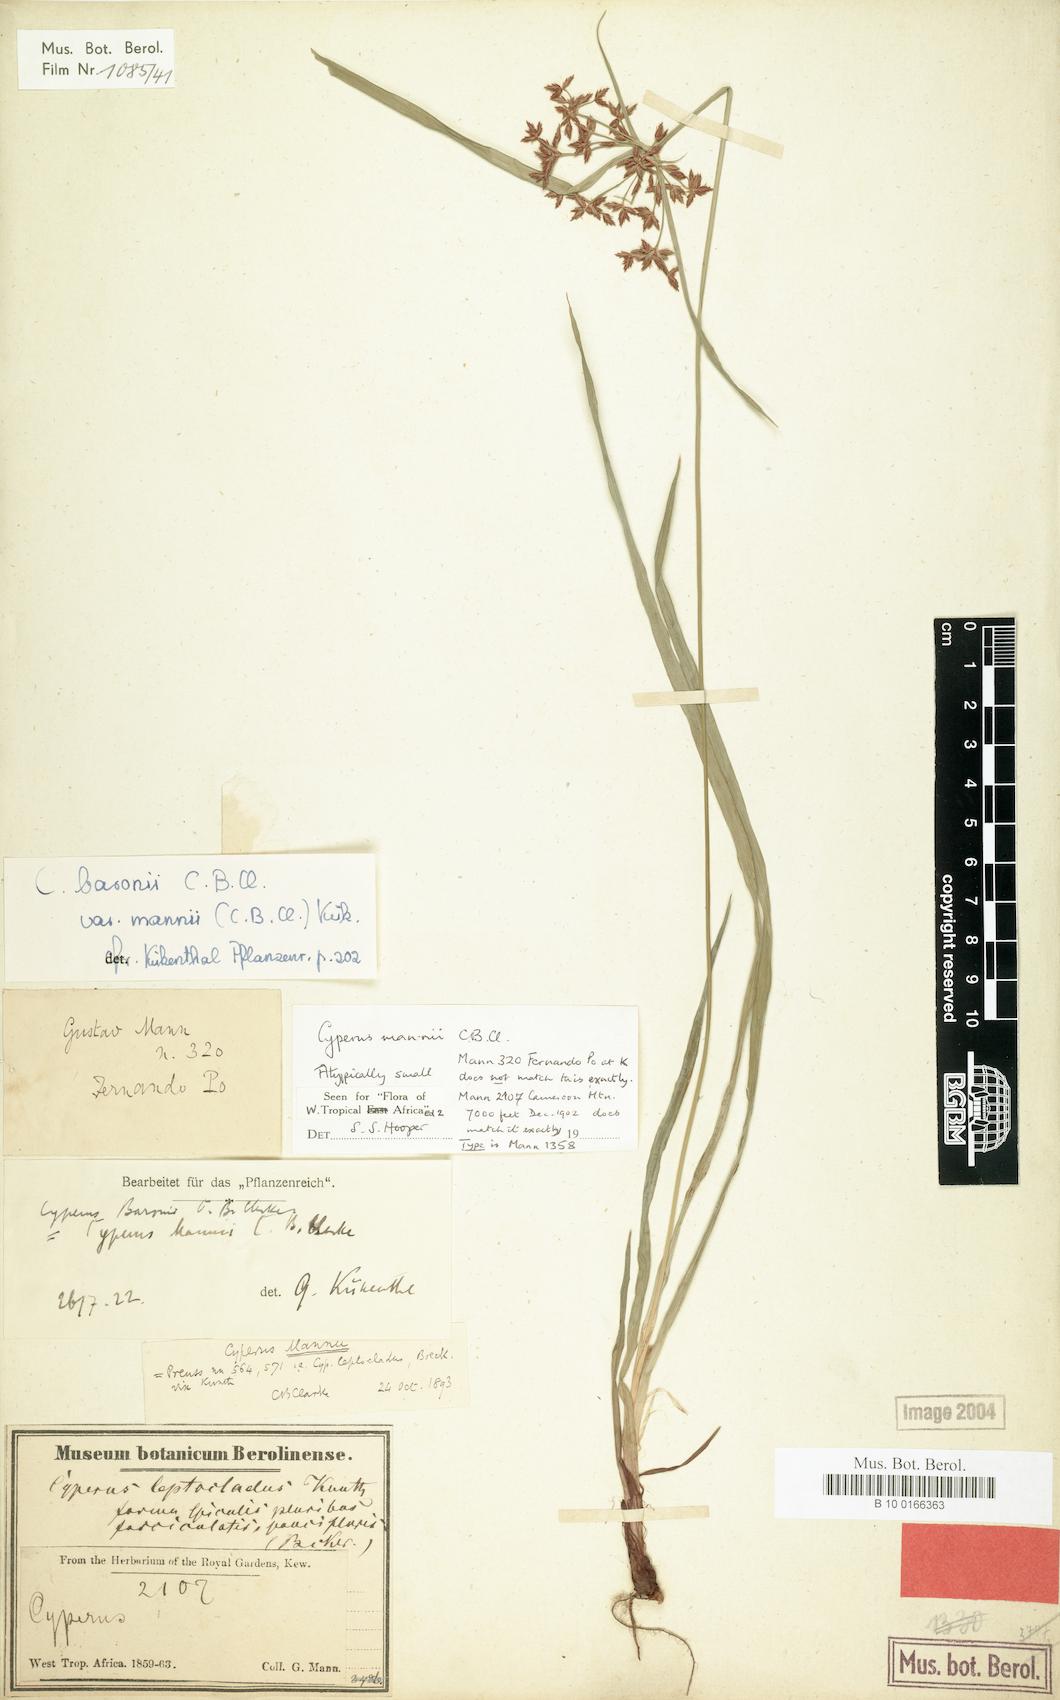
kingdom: Plantae
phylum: Tracheophyta
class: Liliopsida
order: Poales
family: Cyperaceae
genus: Cyperus
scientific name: Cyperus baronii
